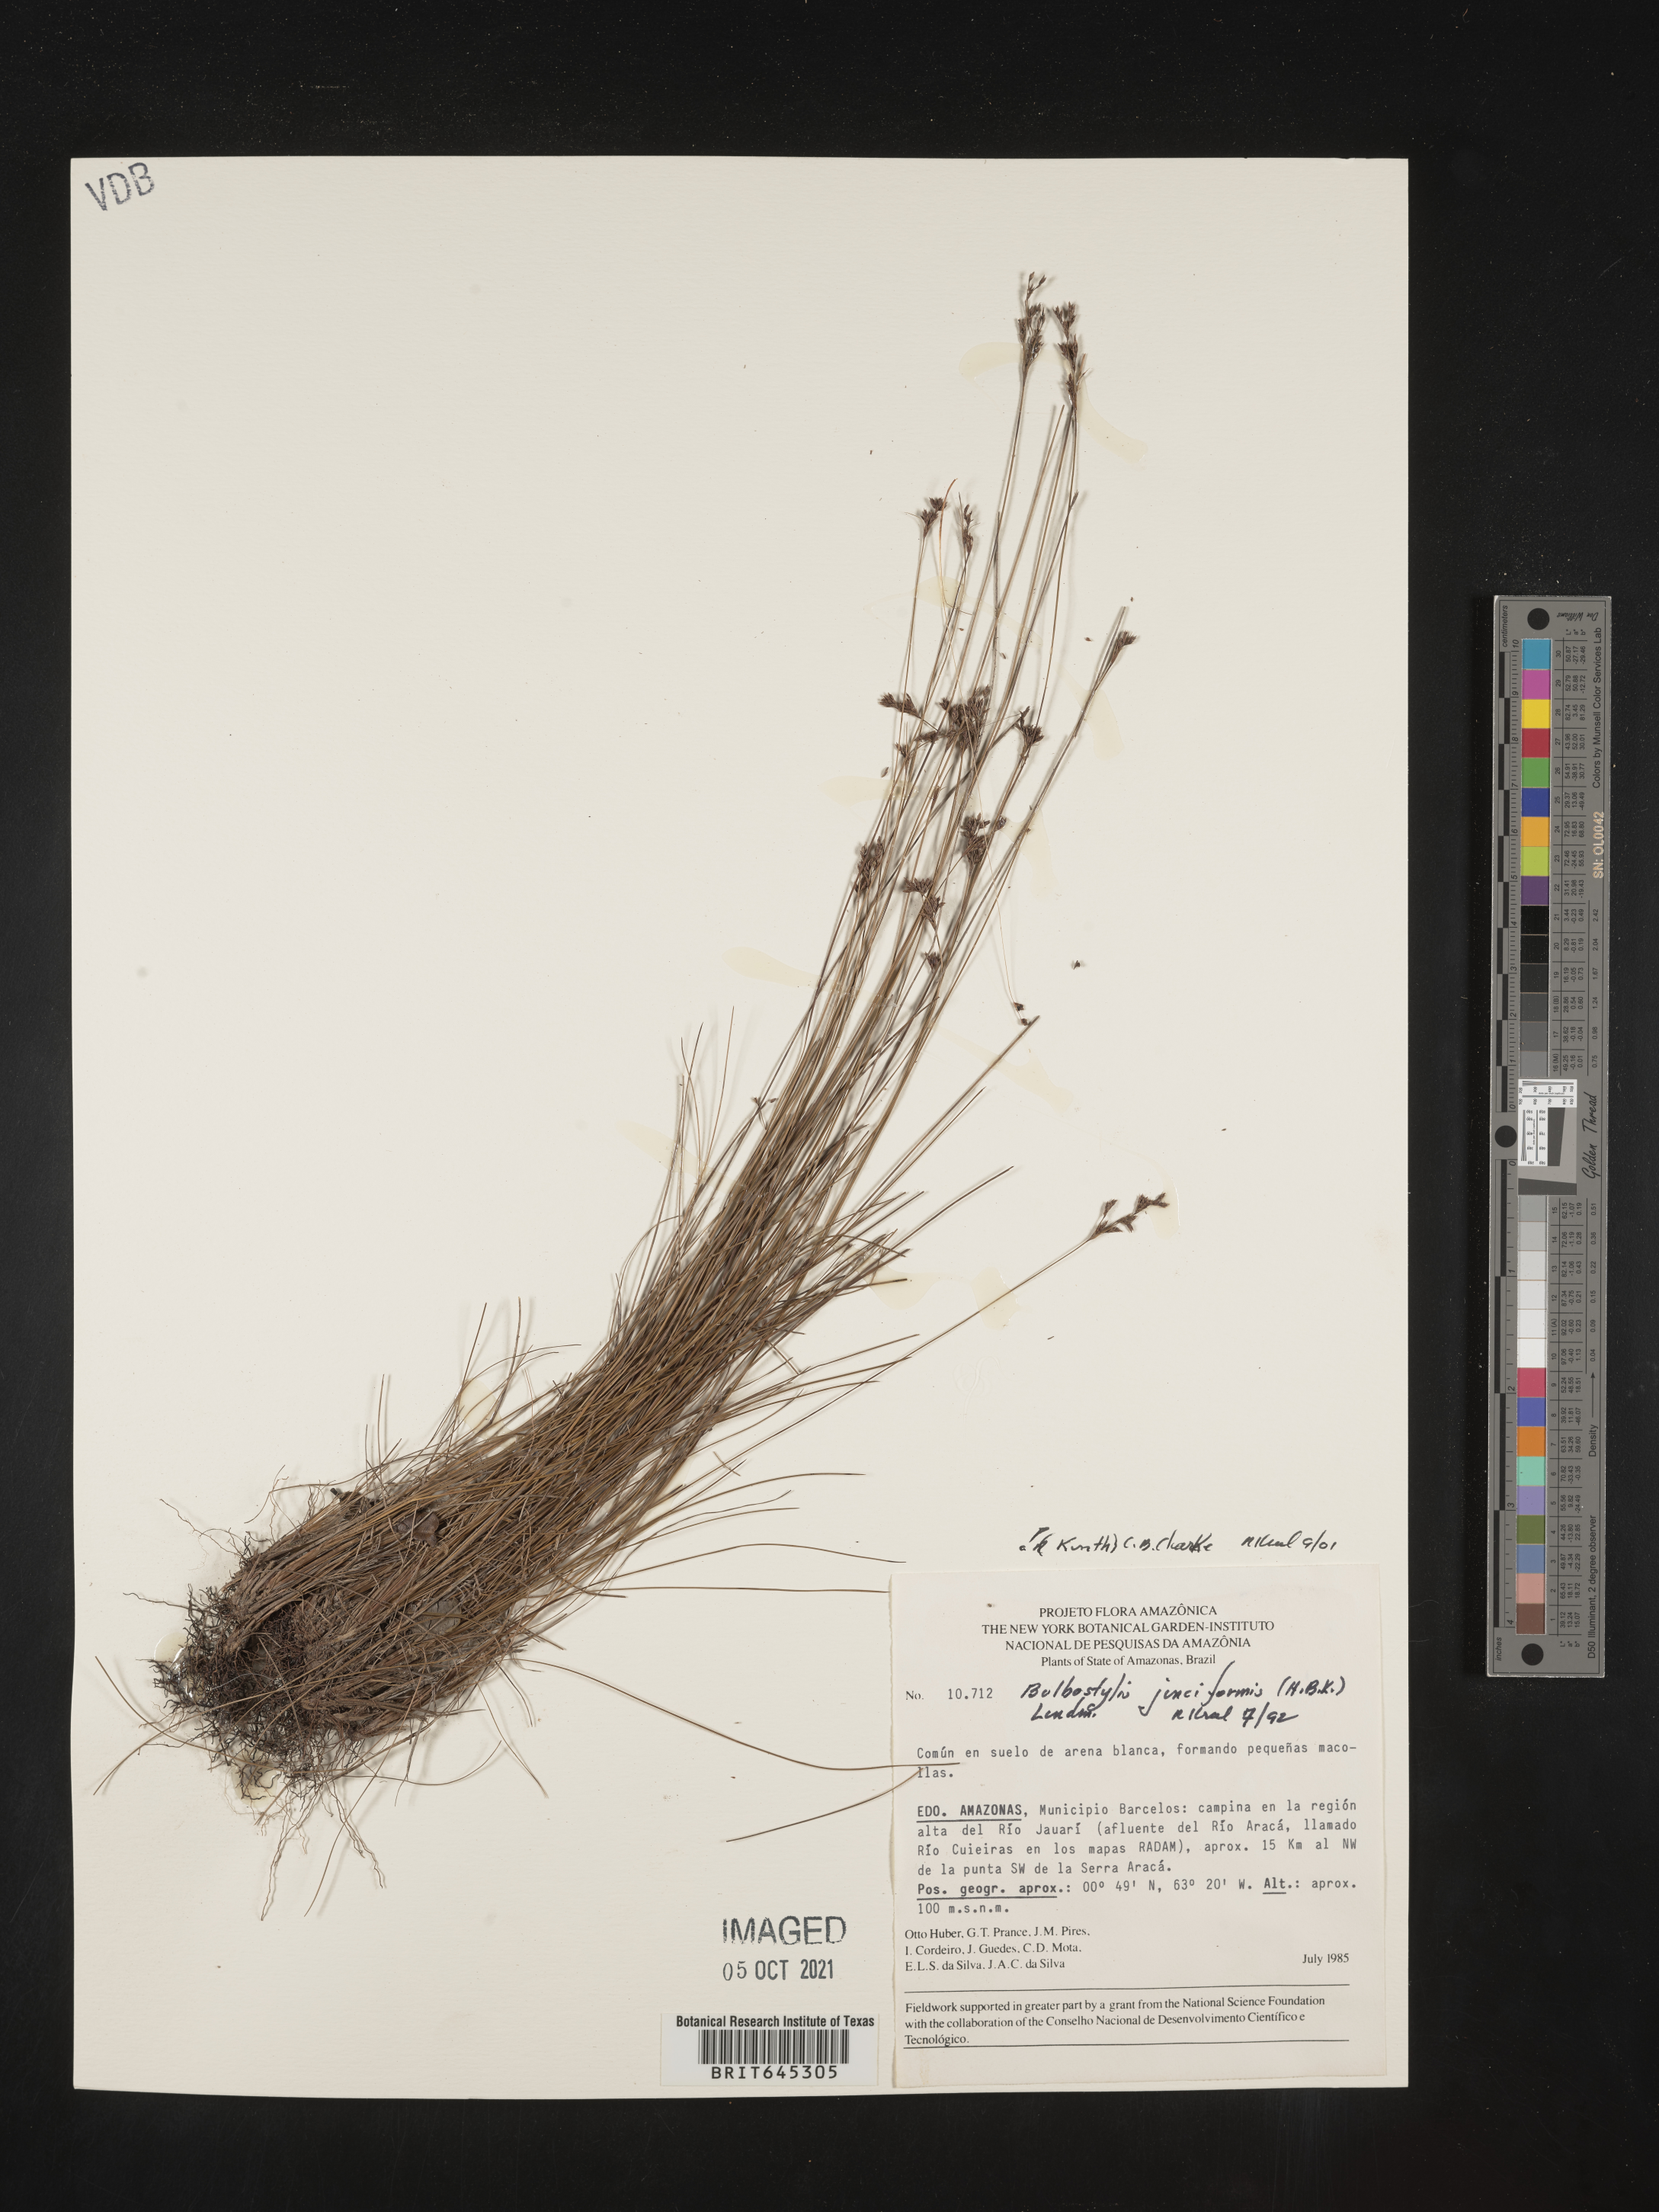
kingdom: Plantae
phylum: Tracheophyta
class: Liliopsida
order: Poales
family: Cyperaceae
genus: Bulbostylis
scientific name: Bulbostylis junciformis
